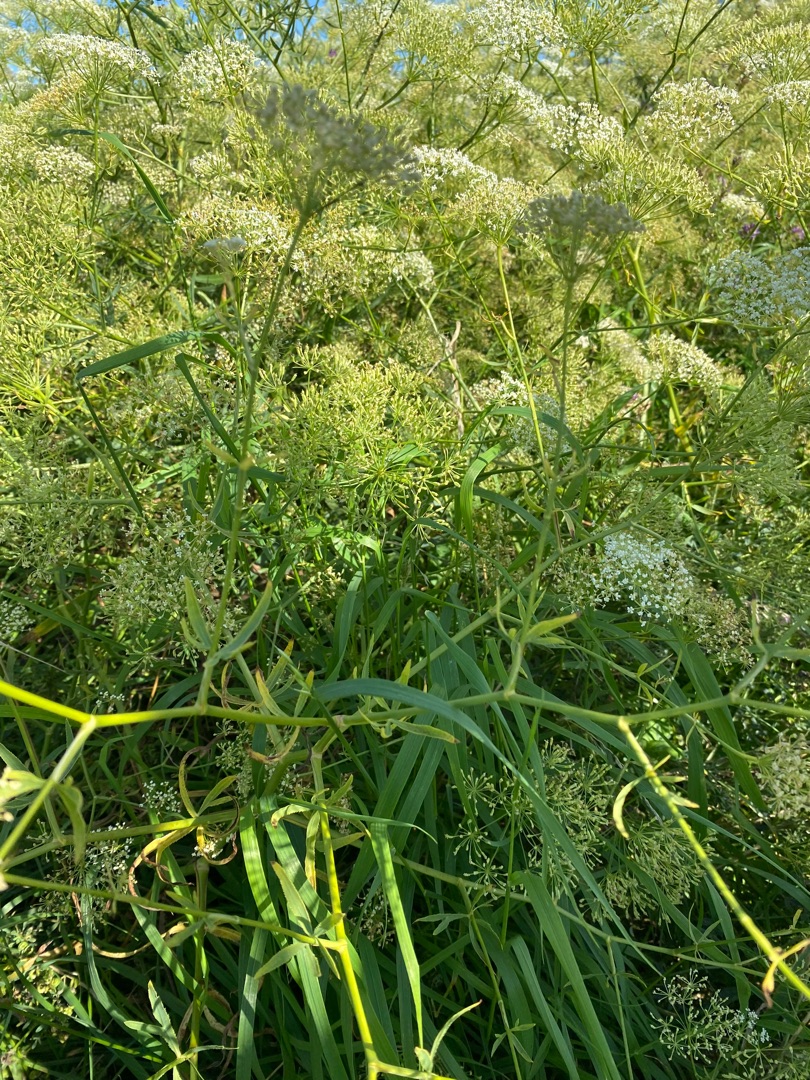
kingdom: Plantae
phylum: Tracheophyta
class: Magnoliopsida
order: Apiales
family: Apiaceae
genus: Falcaria
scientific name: Falcaria vulgaris
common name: Seglblad
